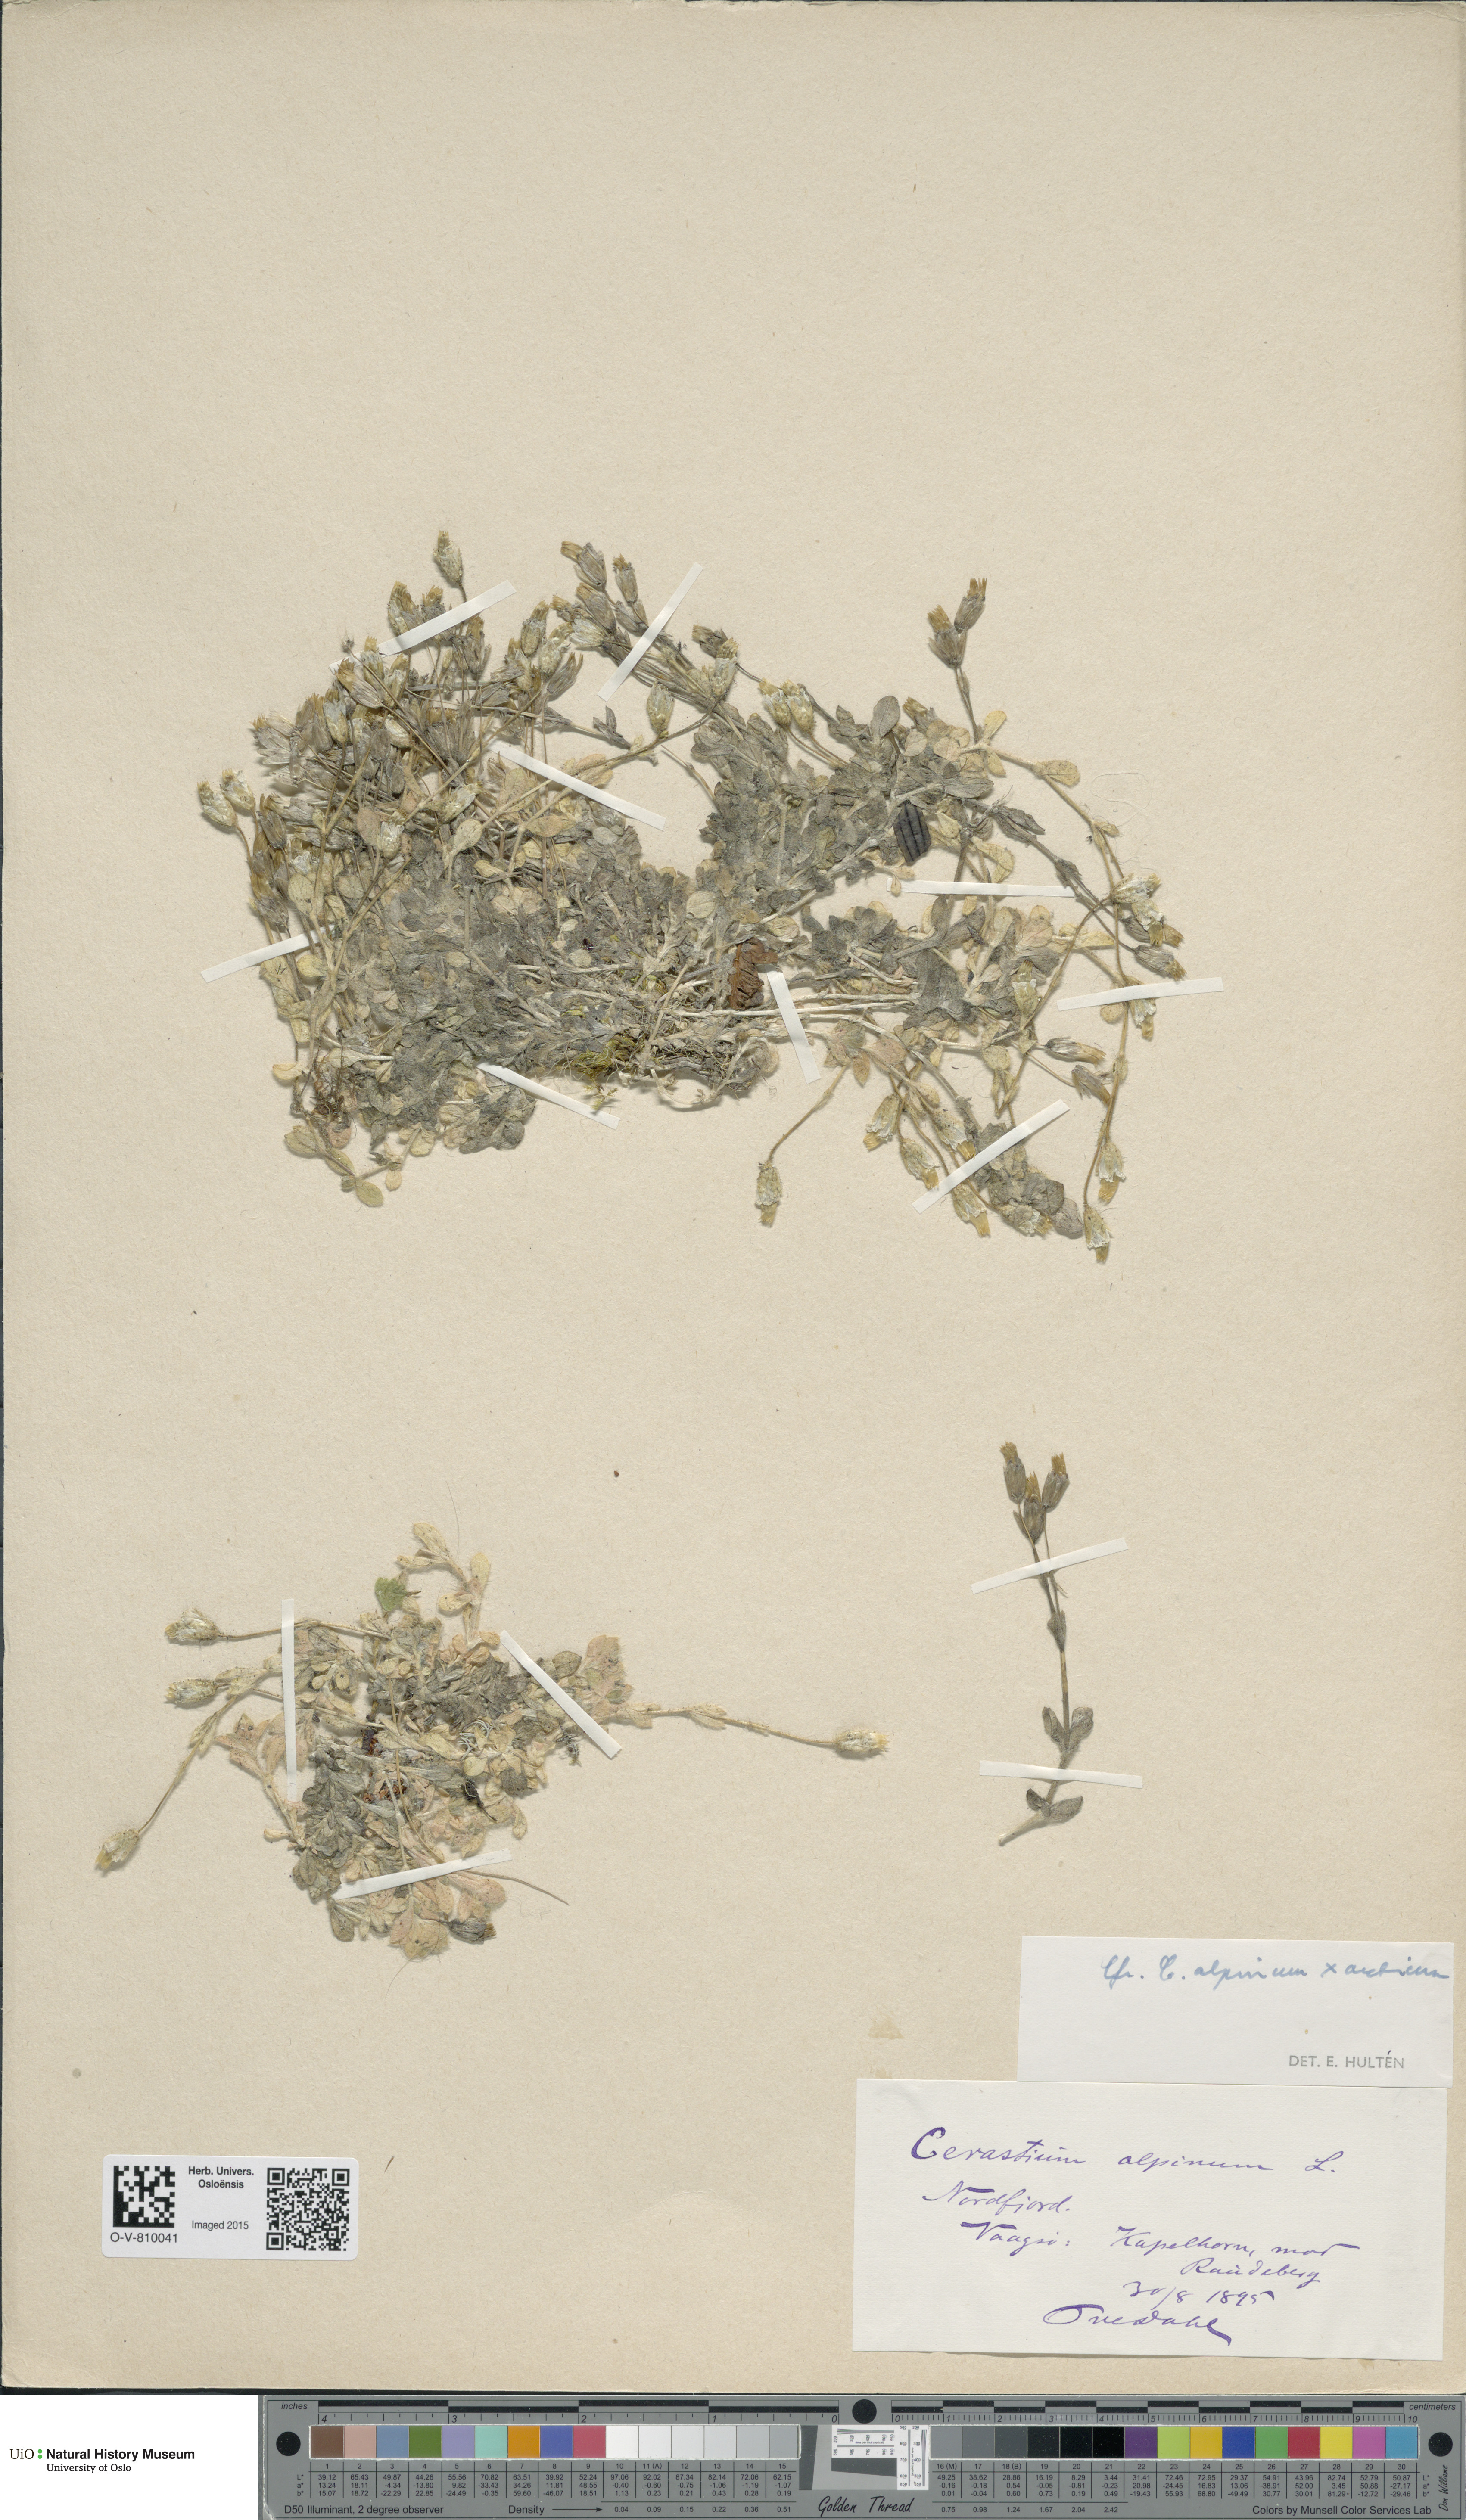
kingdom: Plantae
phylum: Tracheophyta
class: Magnoliopsida
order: Caryophyllales
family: Caryophyllaceae
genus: Cerastium
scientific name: Cerastium
